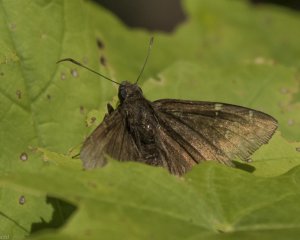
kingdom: Animalia
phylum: Arthropoda
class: Insecta
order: Lepidoptera
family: Hesperiidae
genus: Autochton
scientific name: Autochton
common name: Northern Cloudywing
